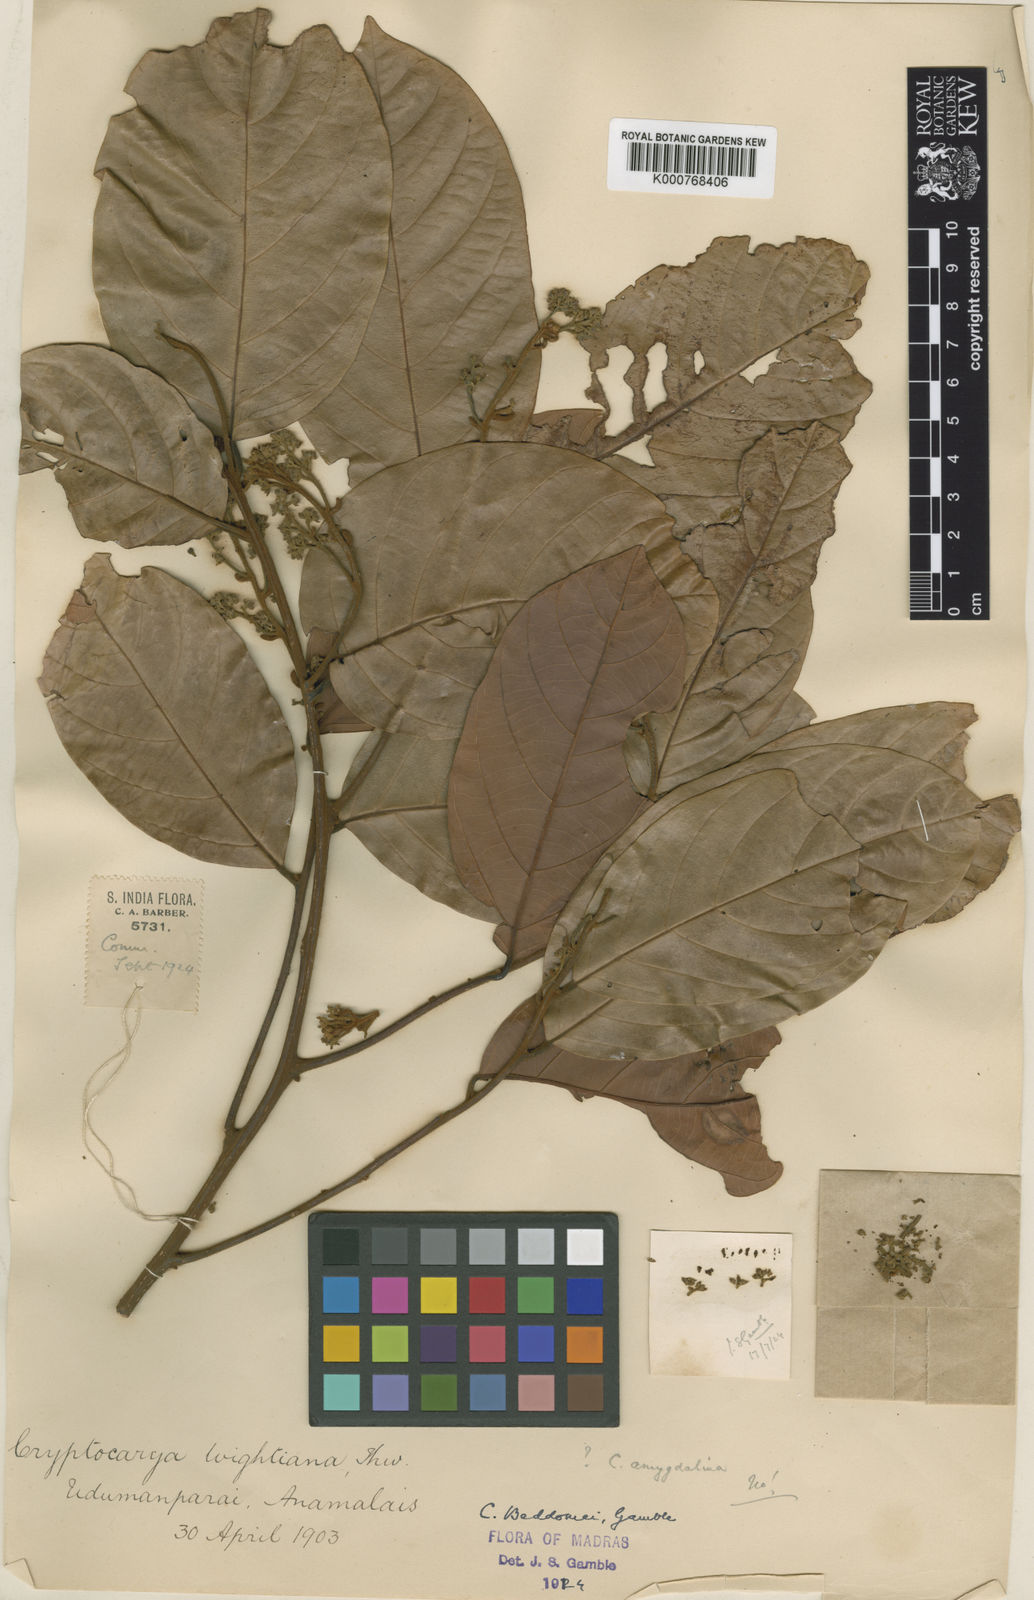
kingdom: Plantae
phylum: Tracheophyta
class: Magnoliopsida
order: Laurales
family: Lauraceae
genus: Cryptocarya
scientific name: Cryptocarya beddomei
